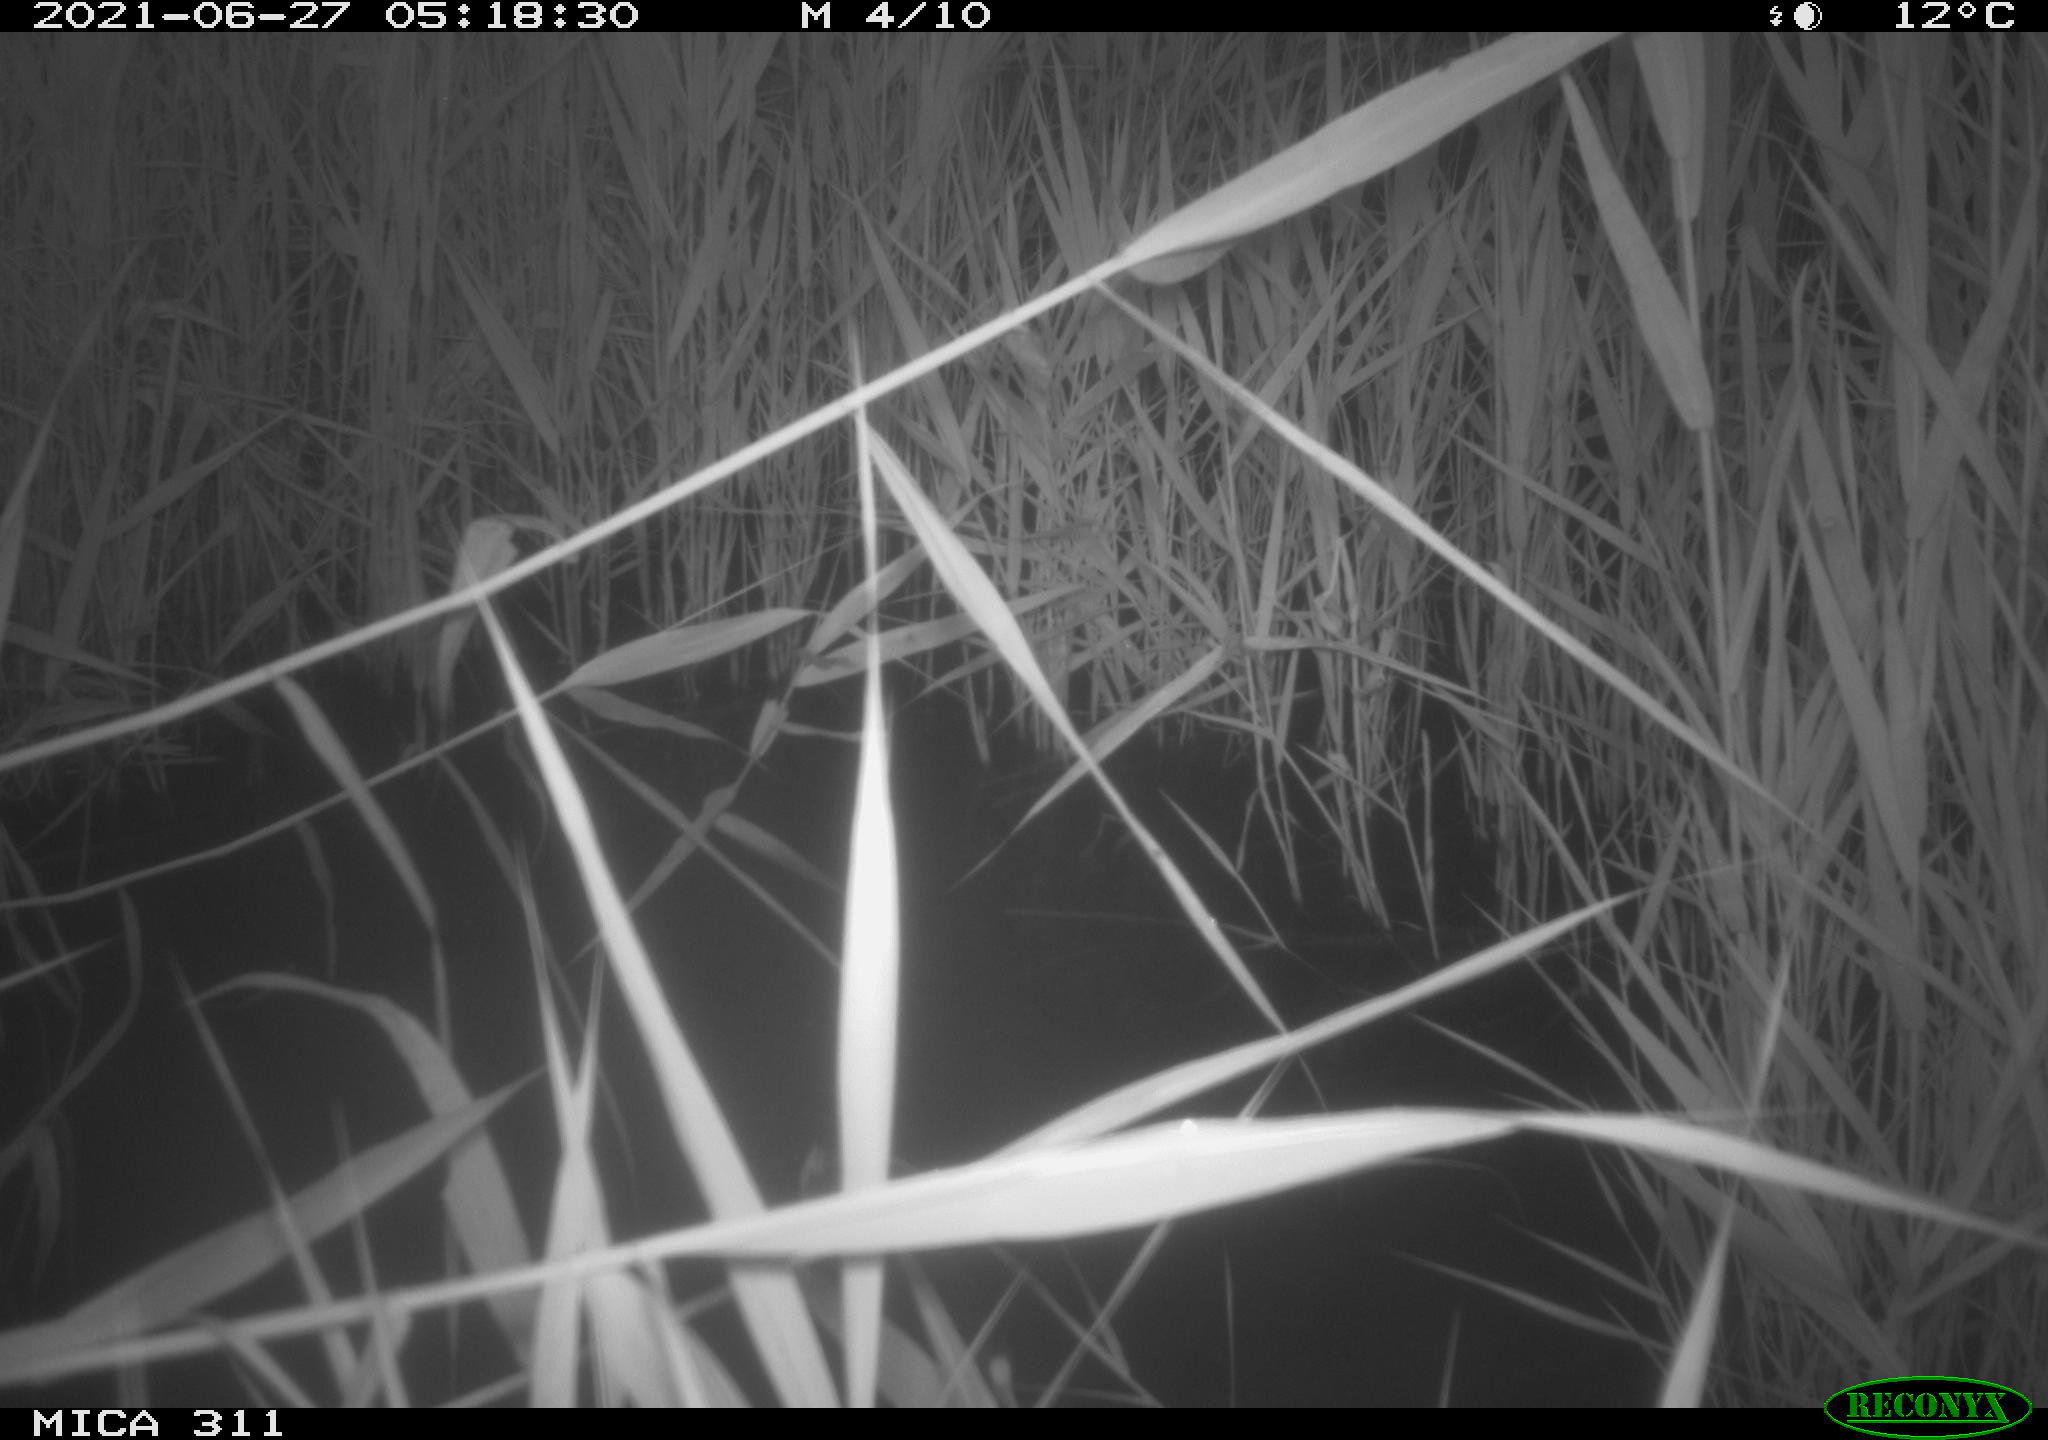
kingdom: Animalia
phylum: Chordata
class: Aves
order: Gruiformes
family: Rallidae
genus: Gallinula
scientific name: Gallinula chloropus
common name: Common moorhen
